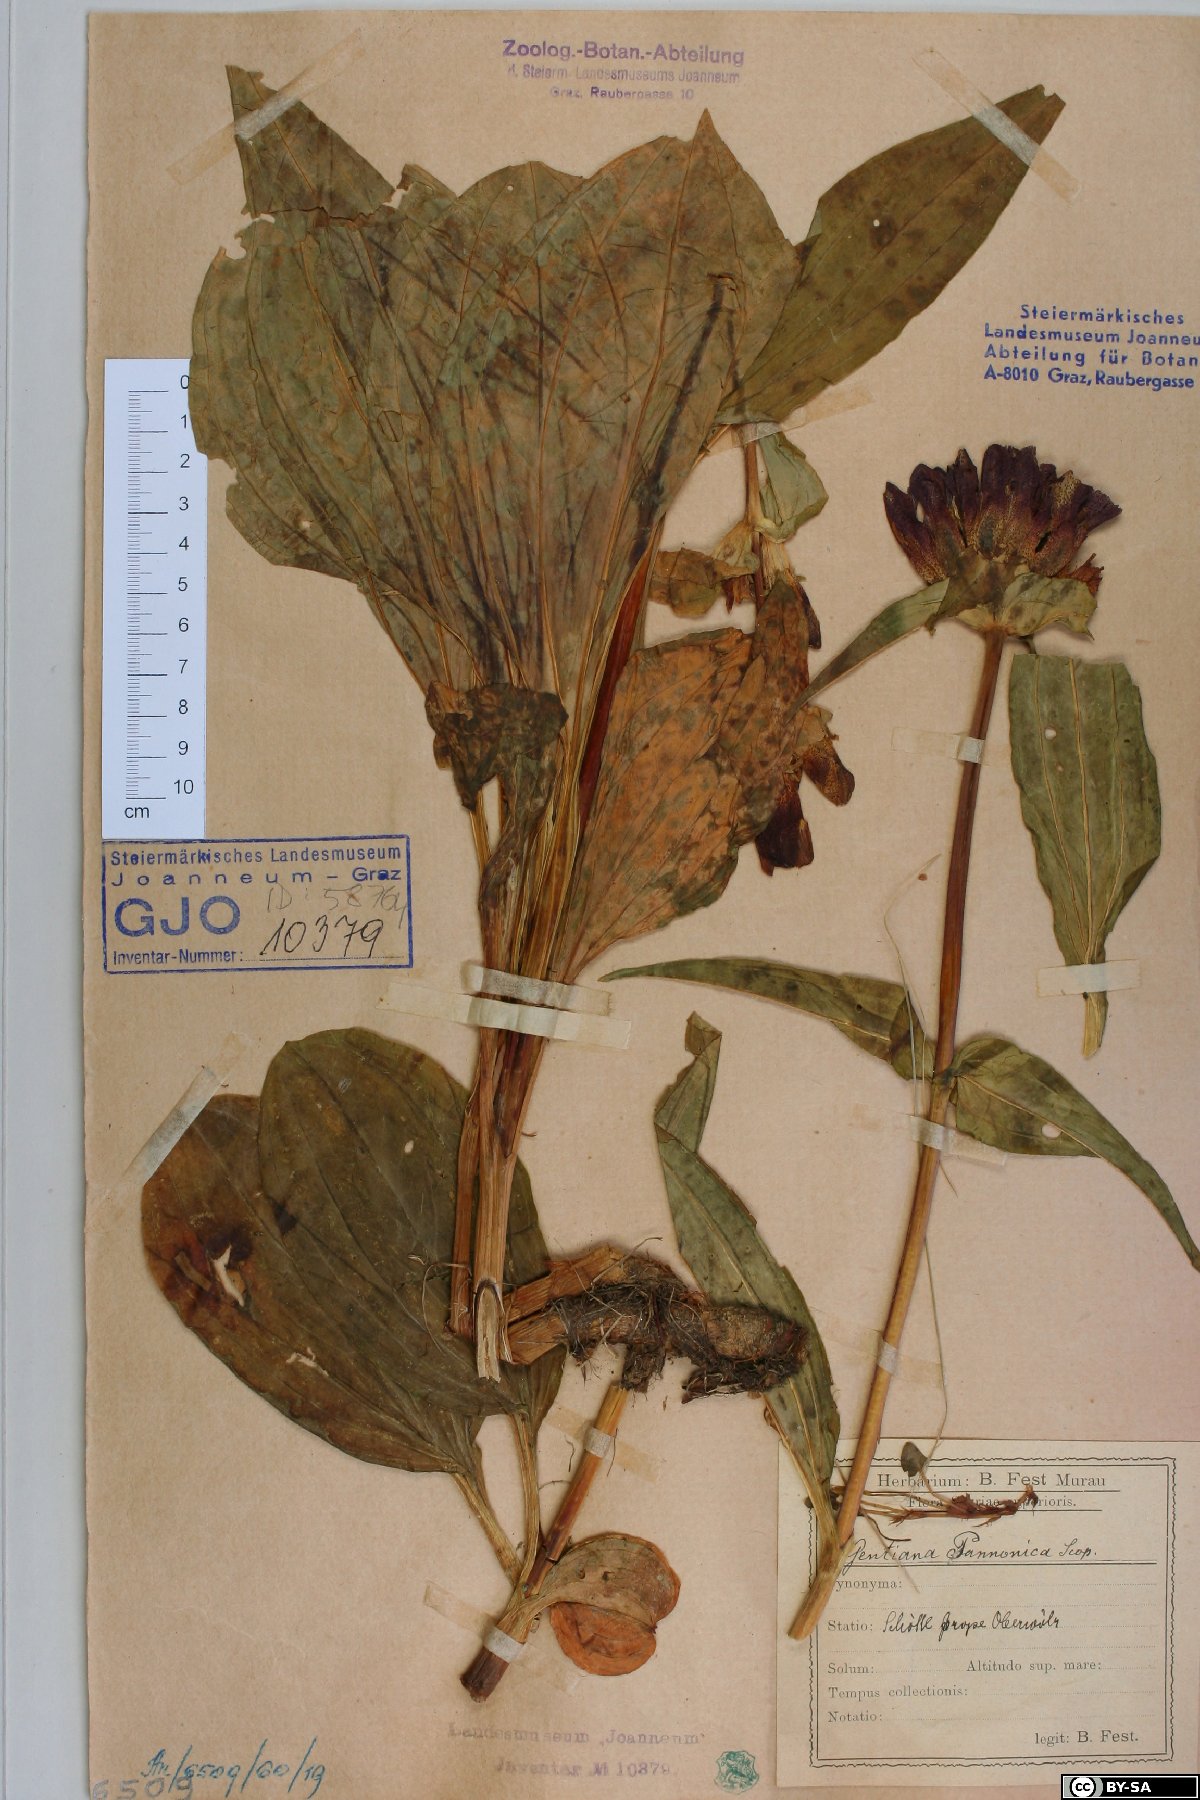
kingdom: Plantae
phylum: Tracheophyta
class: Magnoliopsida
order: Gentianales
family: Gentianaceae
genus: Gentiana
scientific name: Gentiana pannonica
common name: Hungarian gentian
